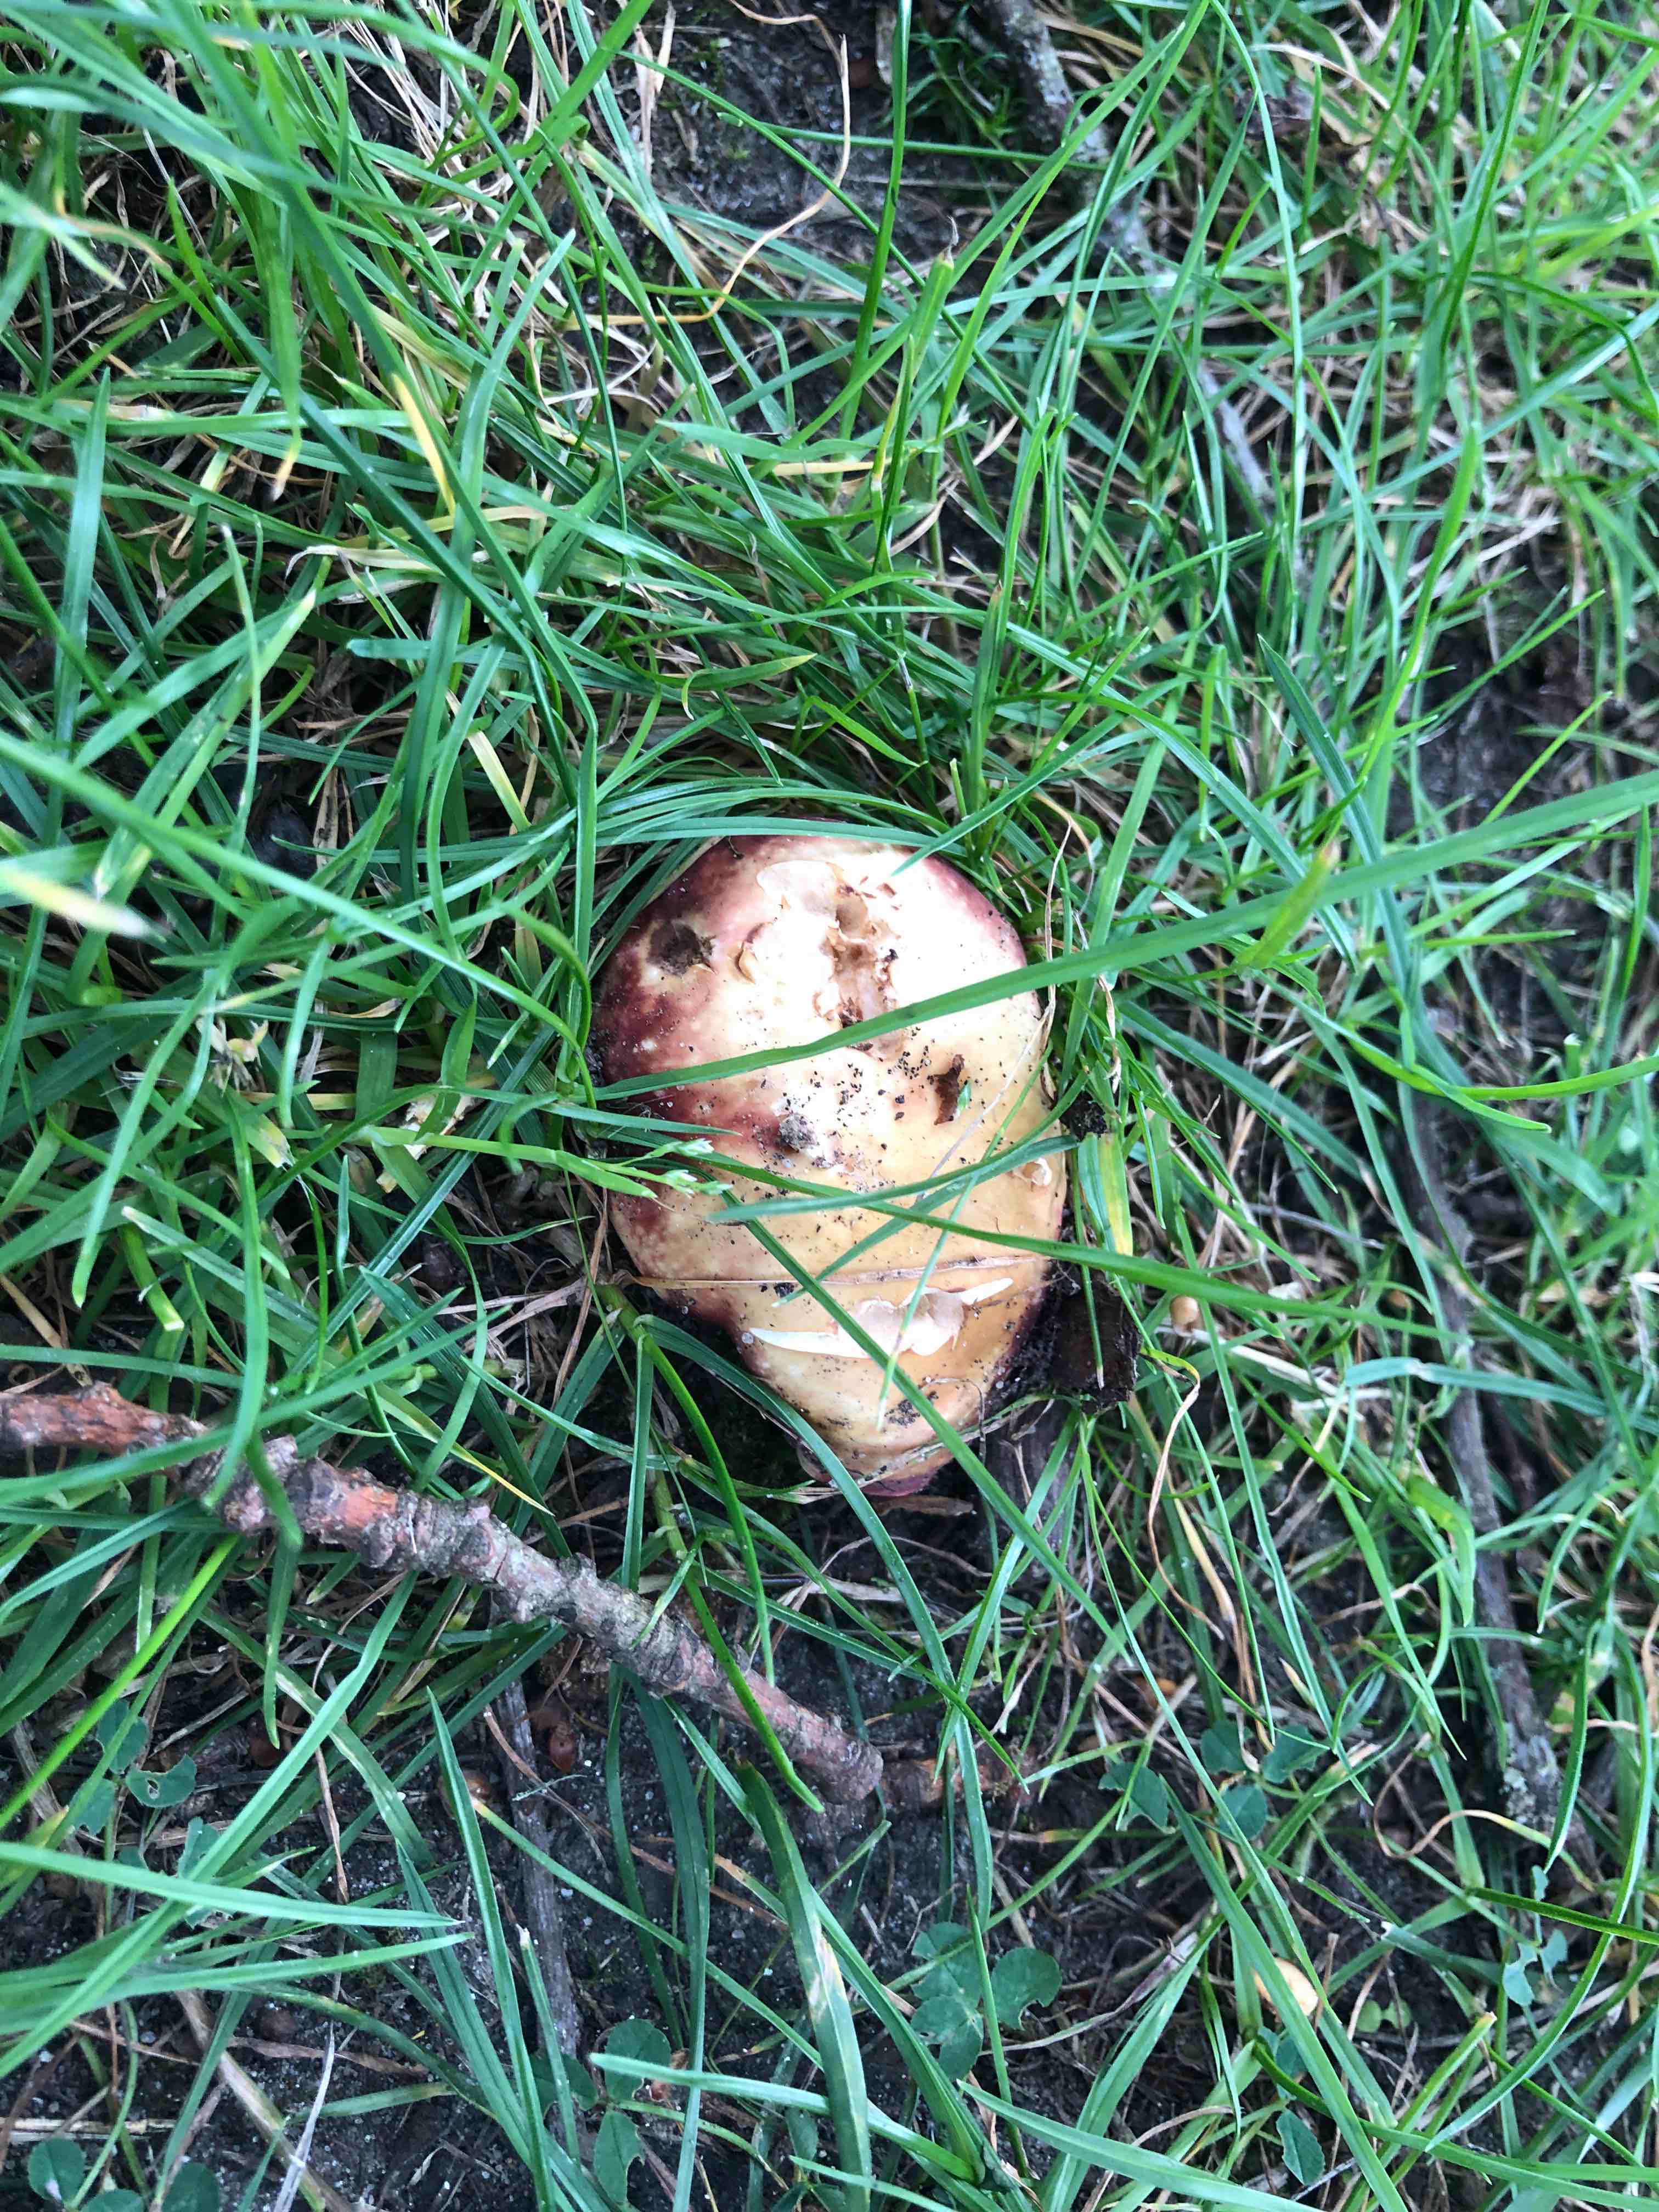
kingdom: Fungi
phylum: Basidiomycota
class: Agaricomycetes
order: Russulales
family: Russulaceae
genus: Russula
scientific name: Russula graveolens
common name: bugtet skørhat
